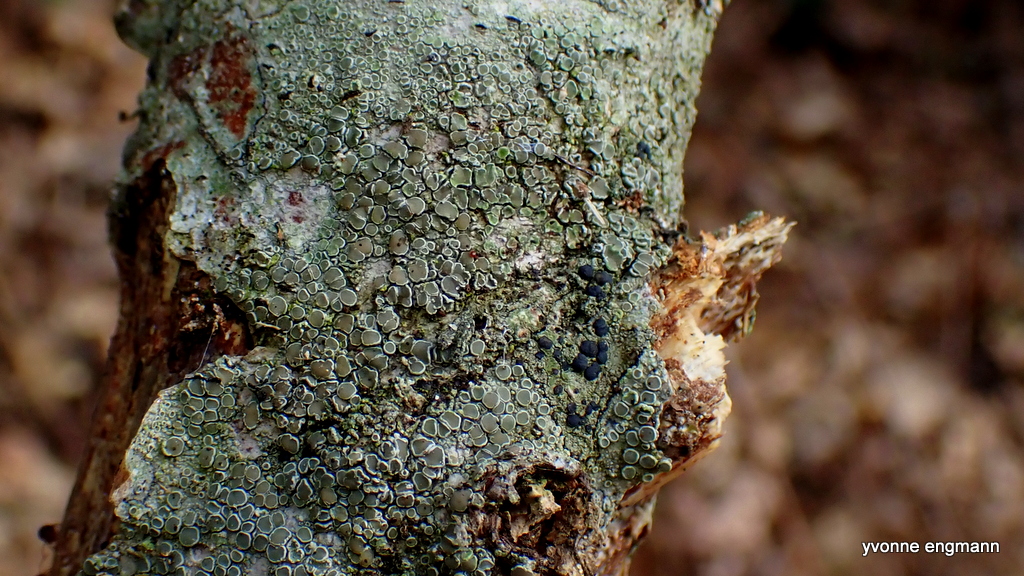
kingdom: Fungi
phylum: Ascomycota
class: Lecanoromycetes
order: Lecanorales
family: Lecanoraceae
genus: Lecanora
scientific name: Lecanora chlarotera
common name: brun kantskivelav
